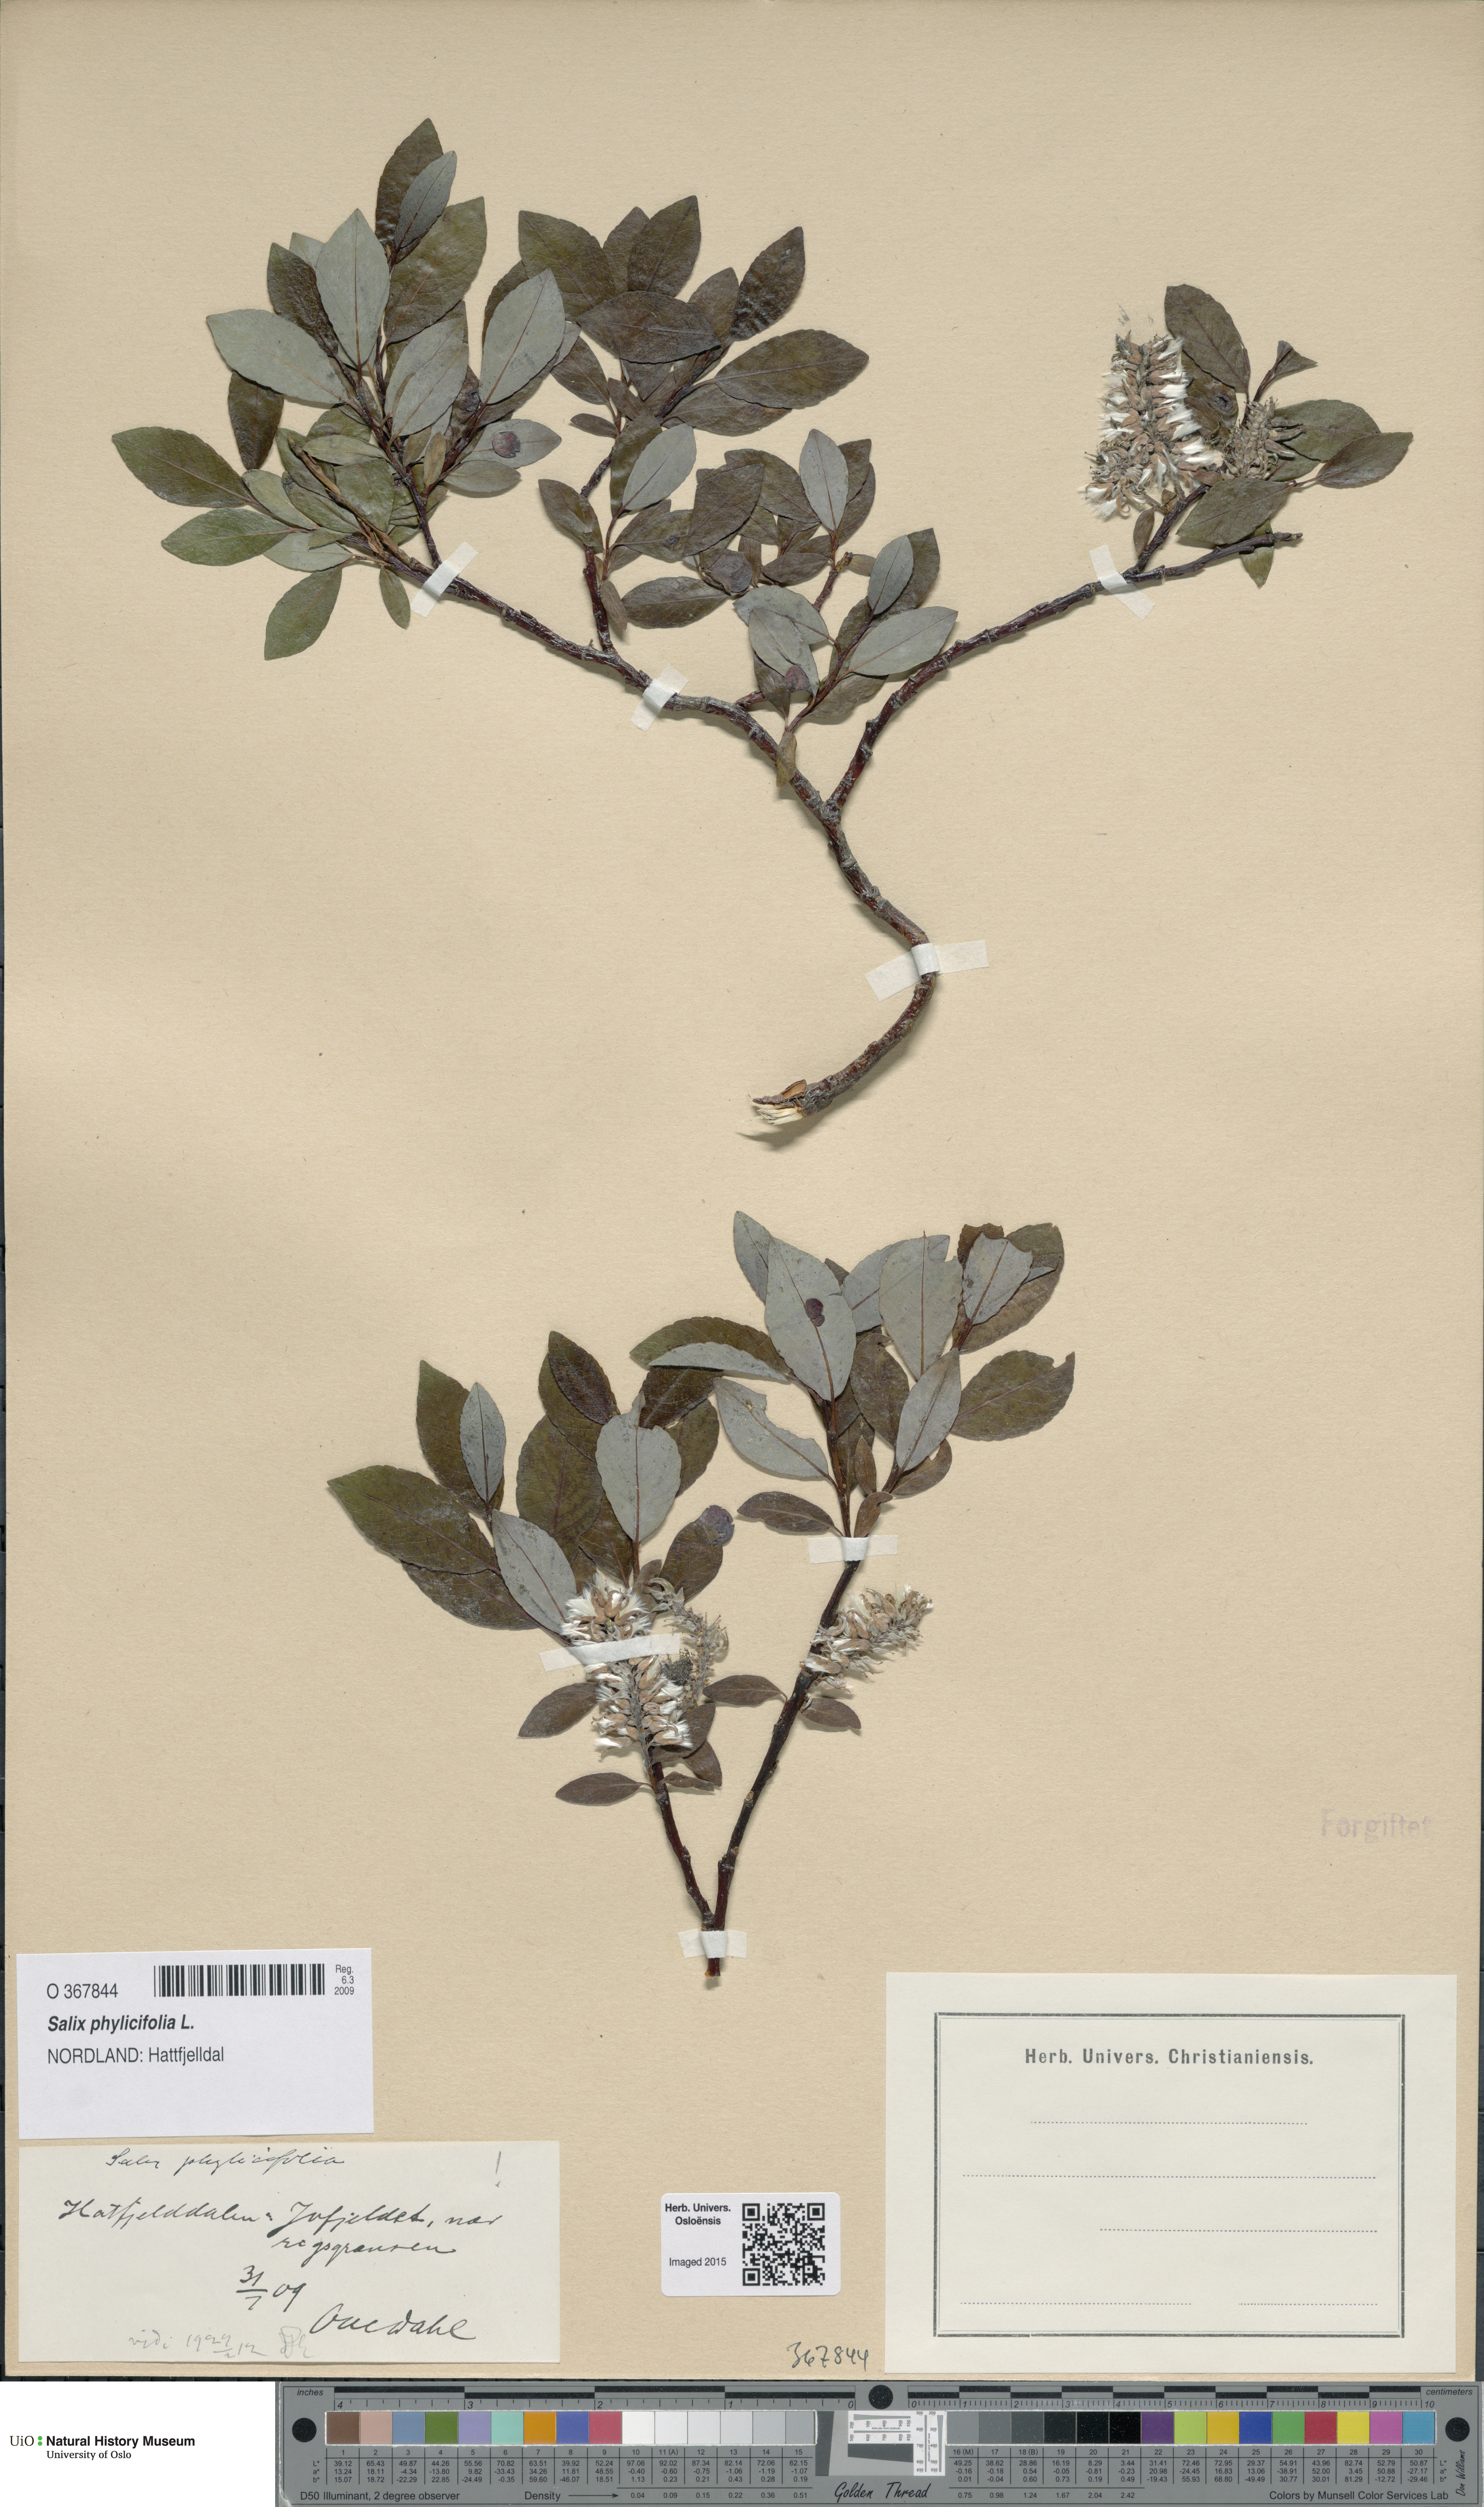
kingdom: Plantae
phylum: Tracheophyta
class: Magnoliopsida
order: Malpighiales
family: Salicaceae
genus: Salix
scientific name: Salix phylicifolia
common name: Tea-leaved willow
